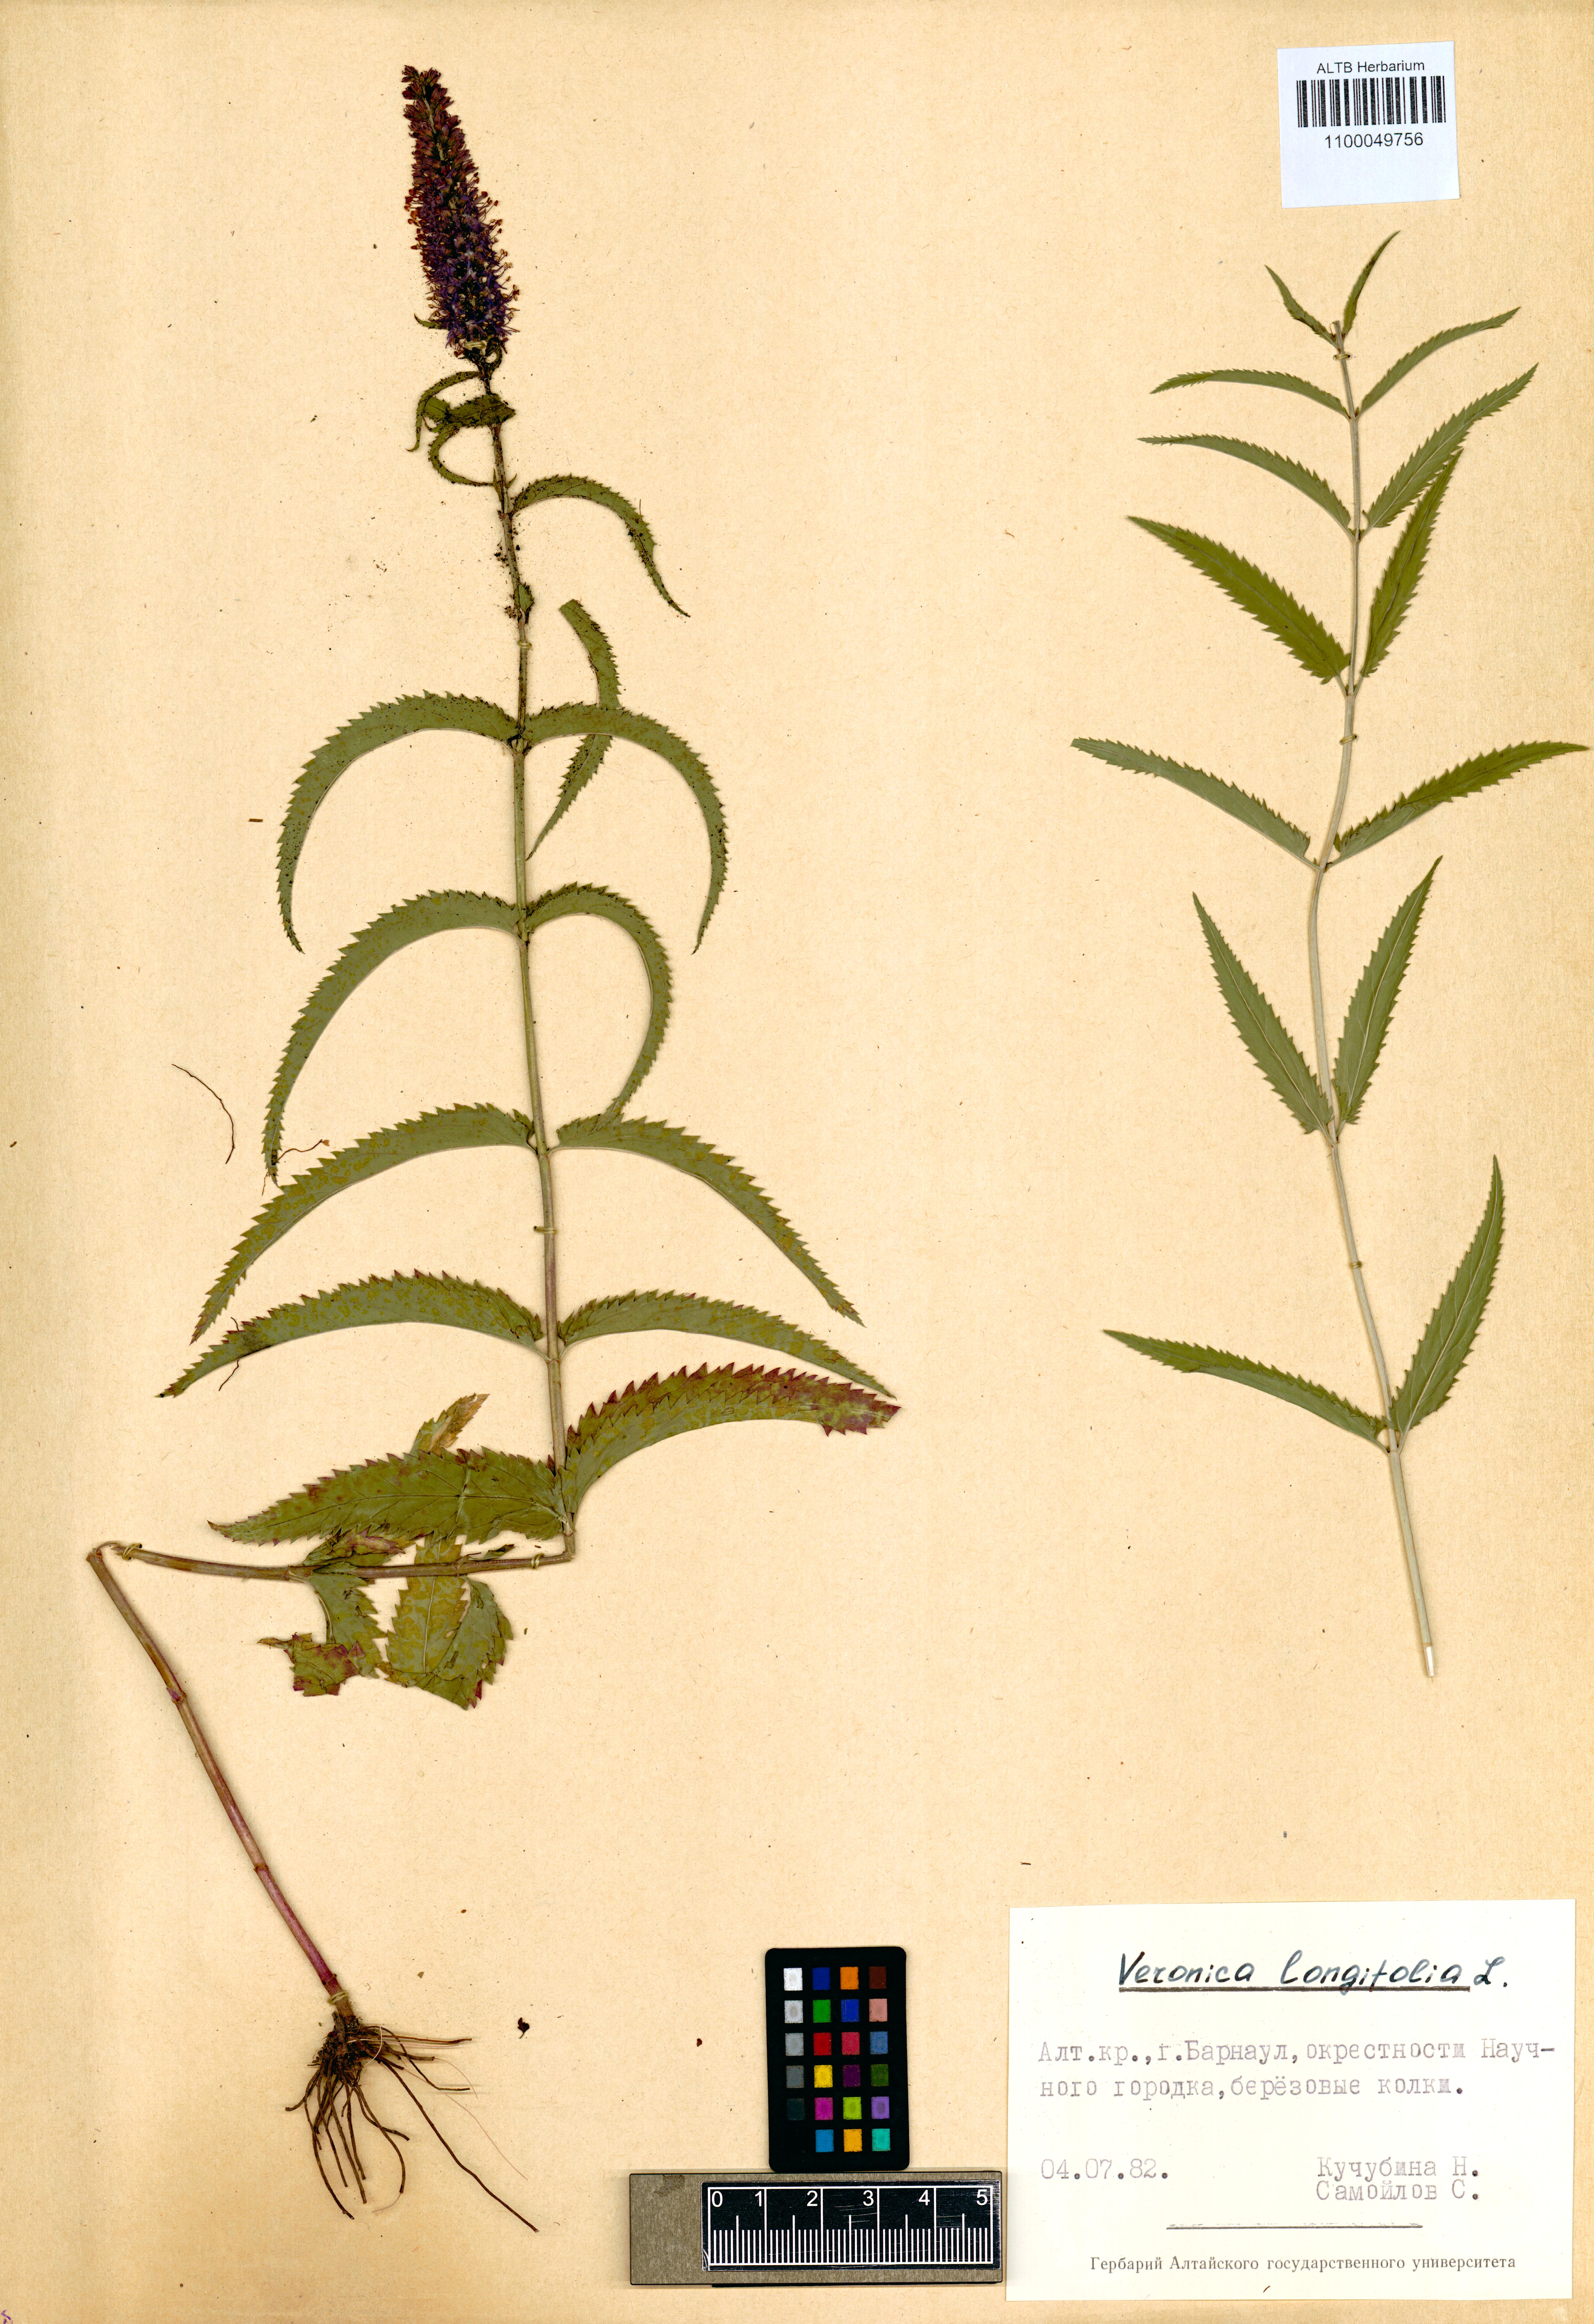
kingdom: Plantae
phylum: Tracheophyta
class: Magnoliopsida
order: Lamiales
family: Plantaginaceae
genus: Veronica
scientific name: Veronica longifolia
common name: Garden speedwell
